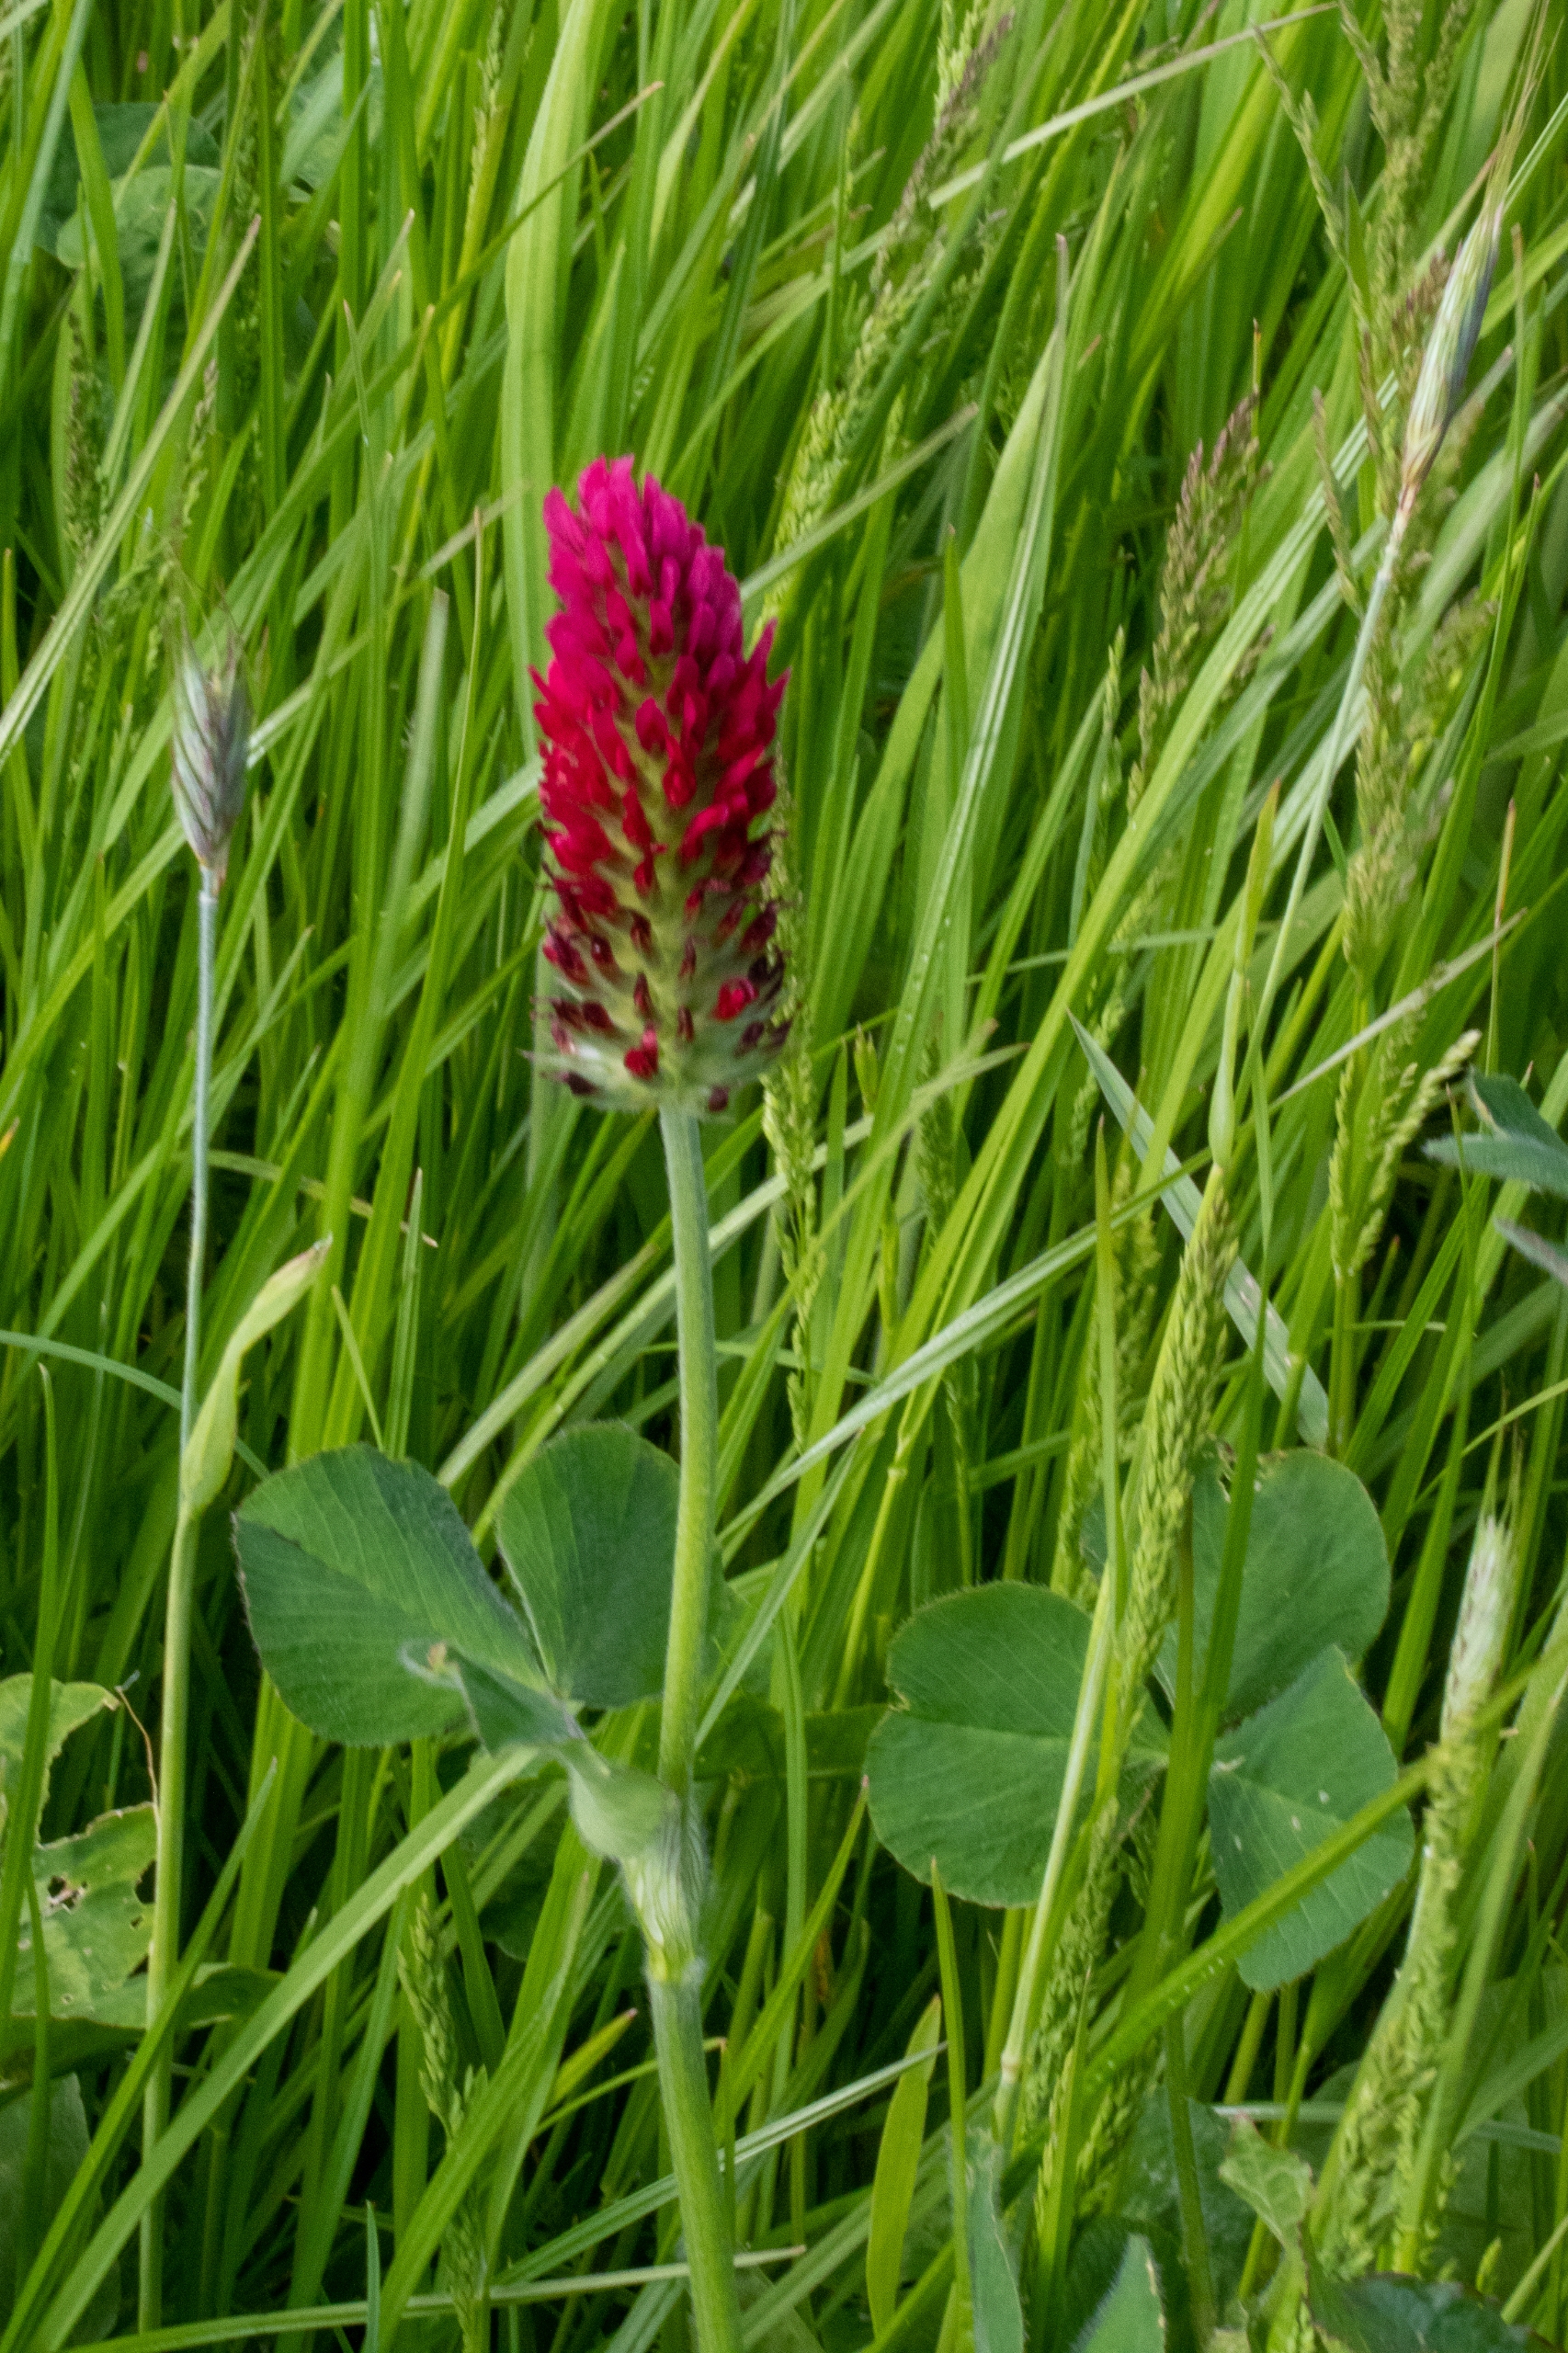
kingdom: Plantae
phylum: Tracheophyta
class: Magnoliopsida
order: Fabales
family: Fabaceae
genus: Trifolium
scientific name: Trifolium incarnatum
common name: Blod-kløver
